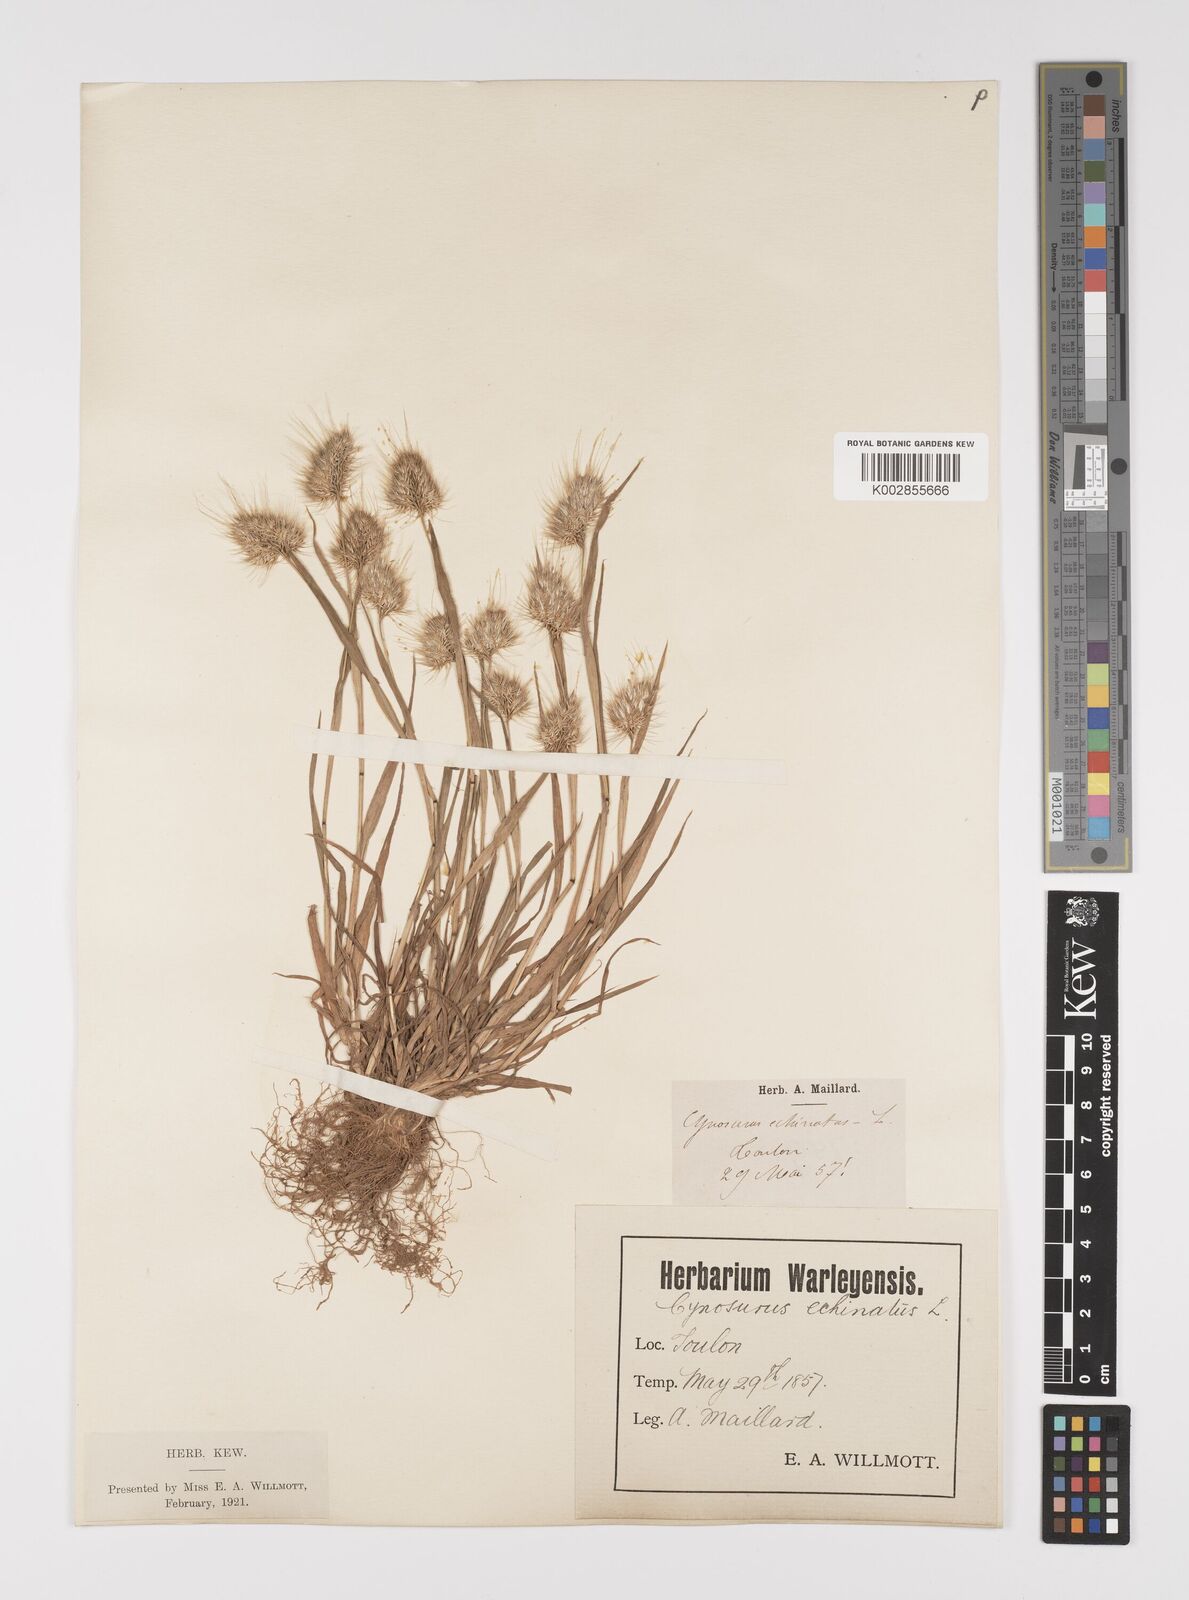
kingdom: Plantae
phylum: Tracheophyta
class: Liliopsida
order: Poales
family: Poaceae
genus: Cynosurus
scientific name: Cynosurus echinatus
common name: Rough dog's-tail
